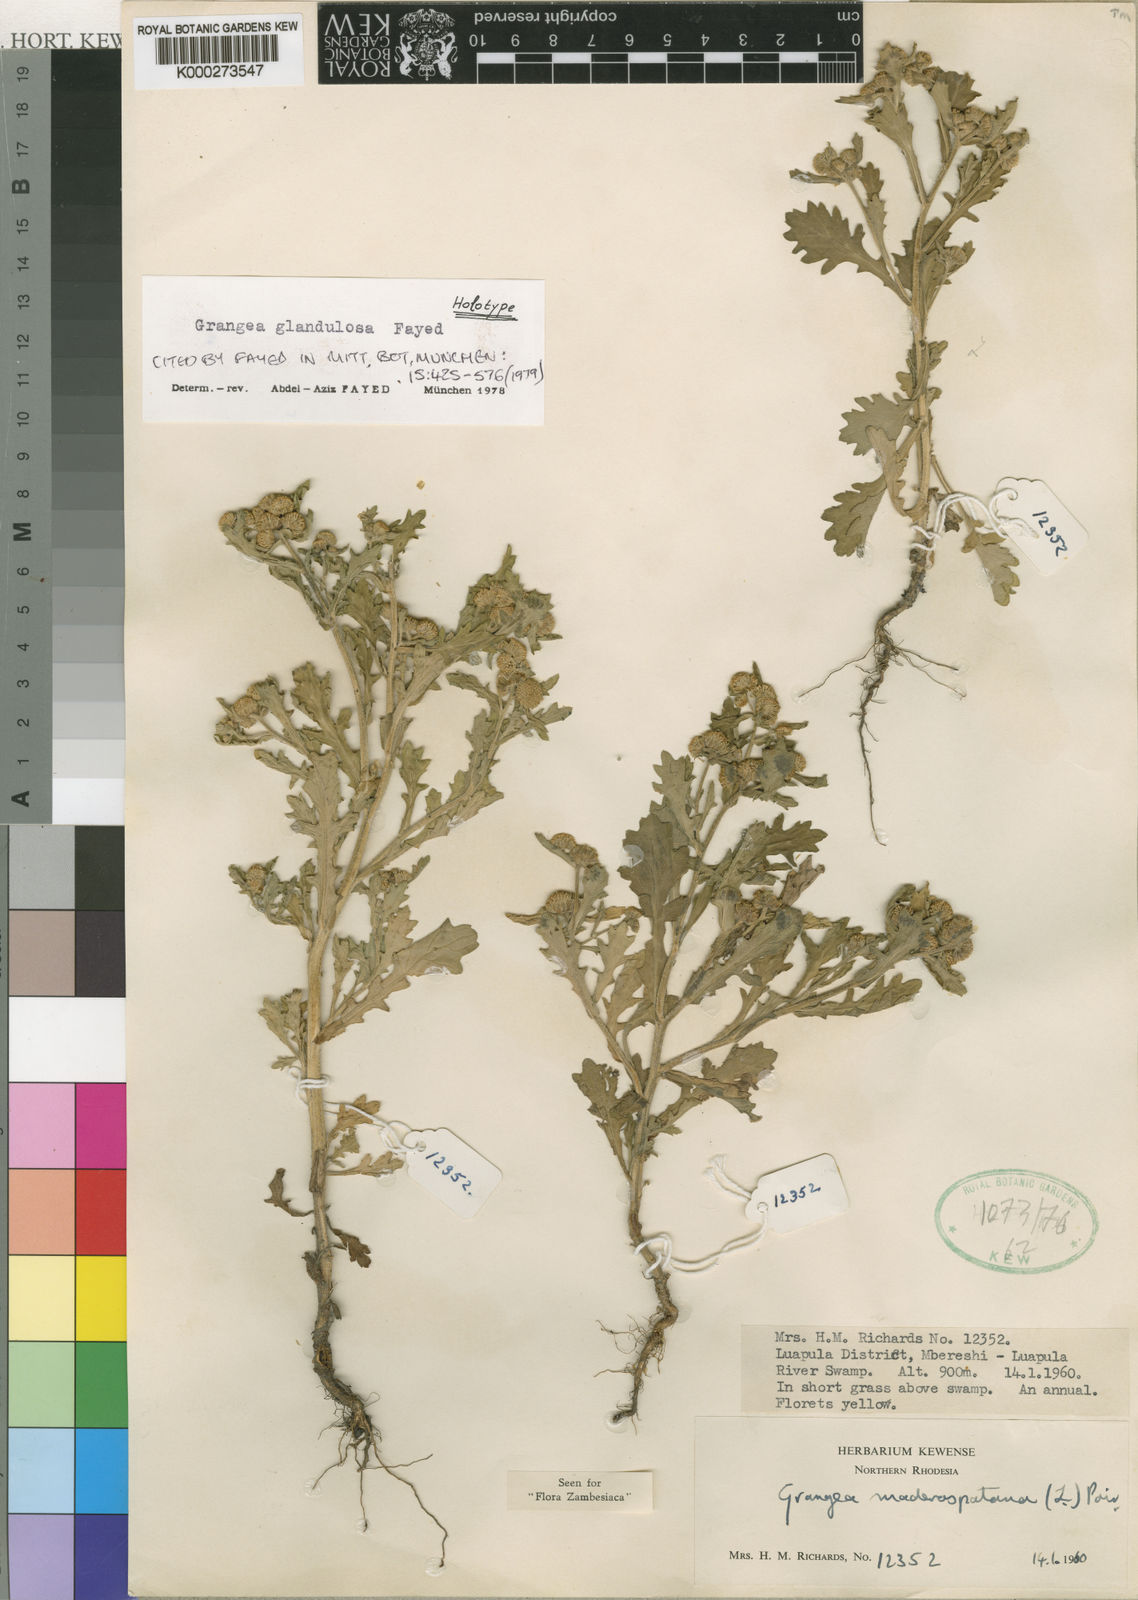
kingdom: Plantae
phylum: Tracheophyta
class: Magnoliopsida
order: Asterales
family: Asteraceae
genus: Grangea
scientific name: Grangea maderaspatana
